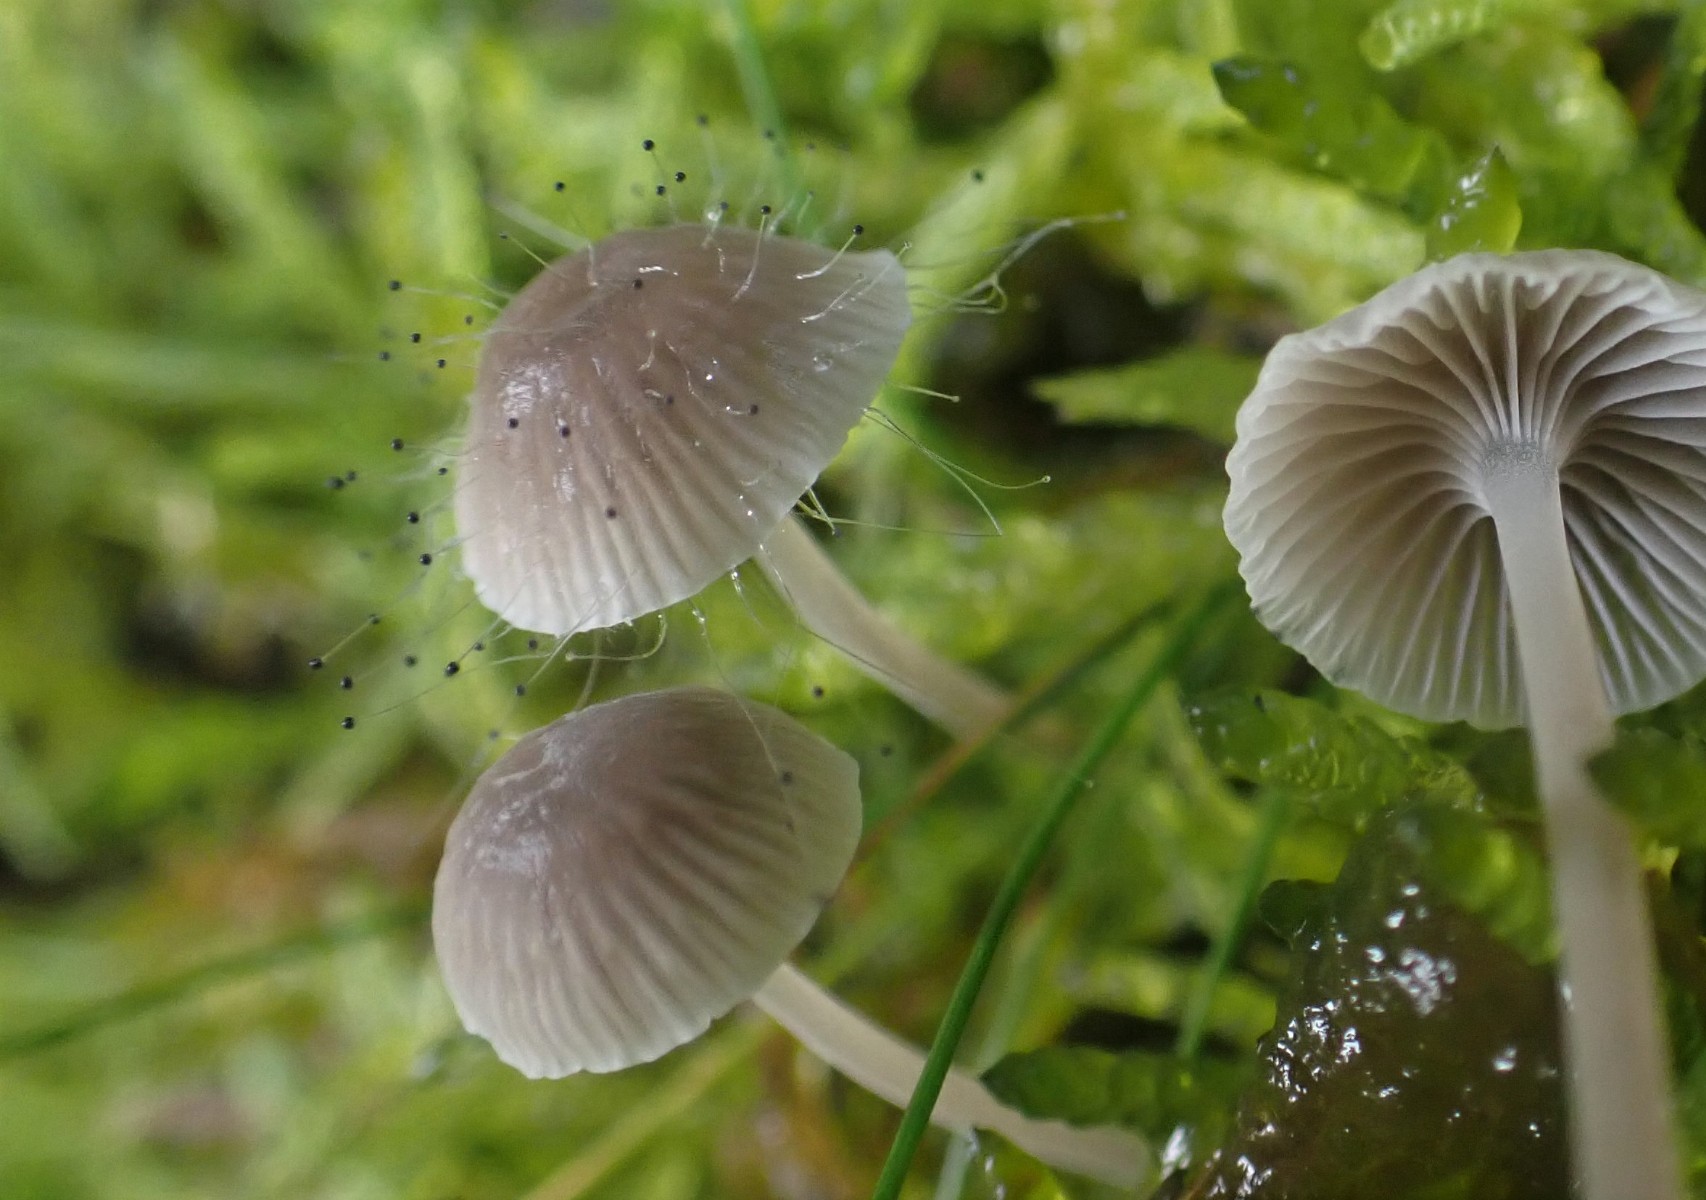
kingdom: Fungi
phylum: Mucoromycota
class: Mucoromycetes
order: Mucorales
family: Phycomycetaceae
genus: Spinellus
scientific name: Spinellus fusiger
